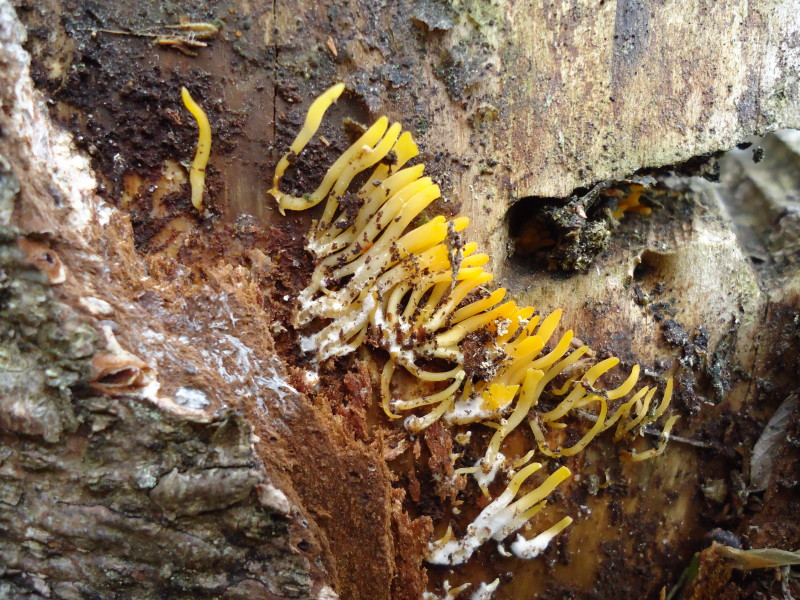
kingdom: Fungi
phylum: Basidiomycota
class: Dacrymycetes
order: Dacrymycetales
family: Dacrymycetaceae
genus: Calocera
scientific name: Calocera cornea
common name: liden guldgaffel
